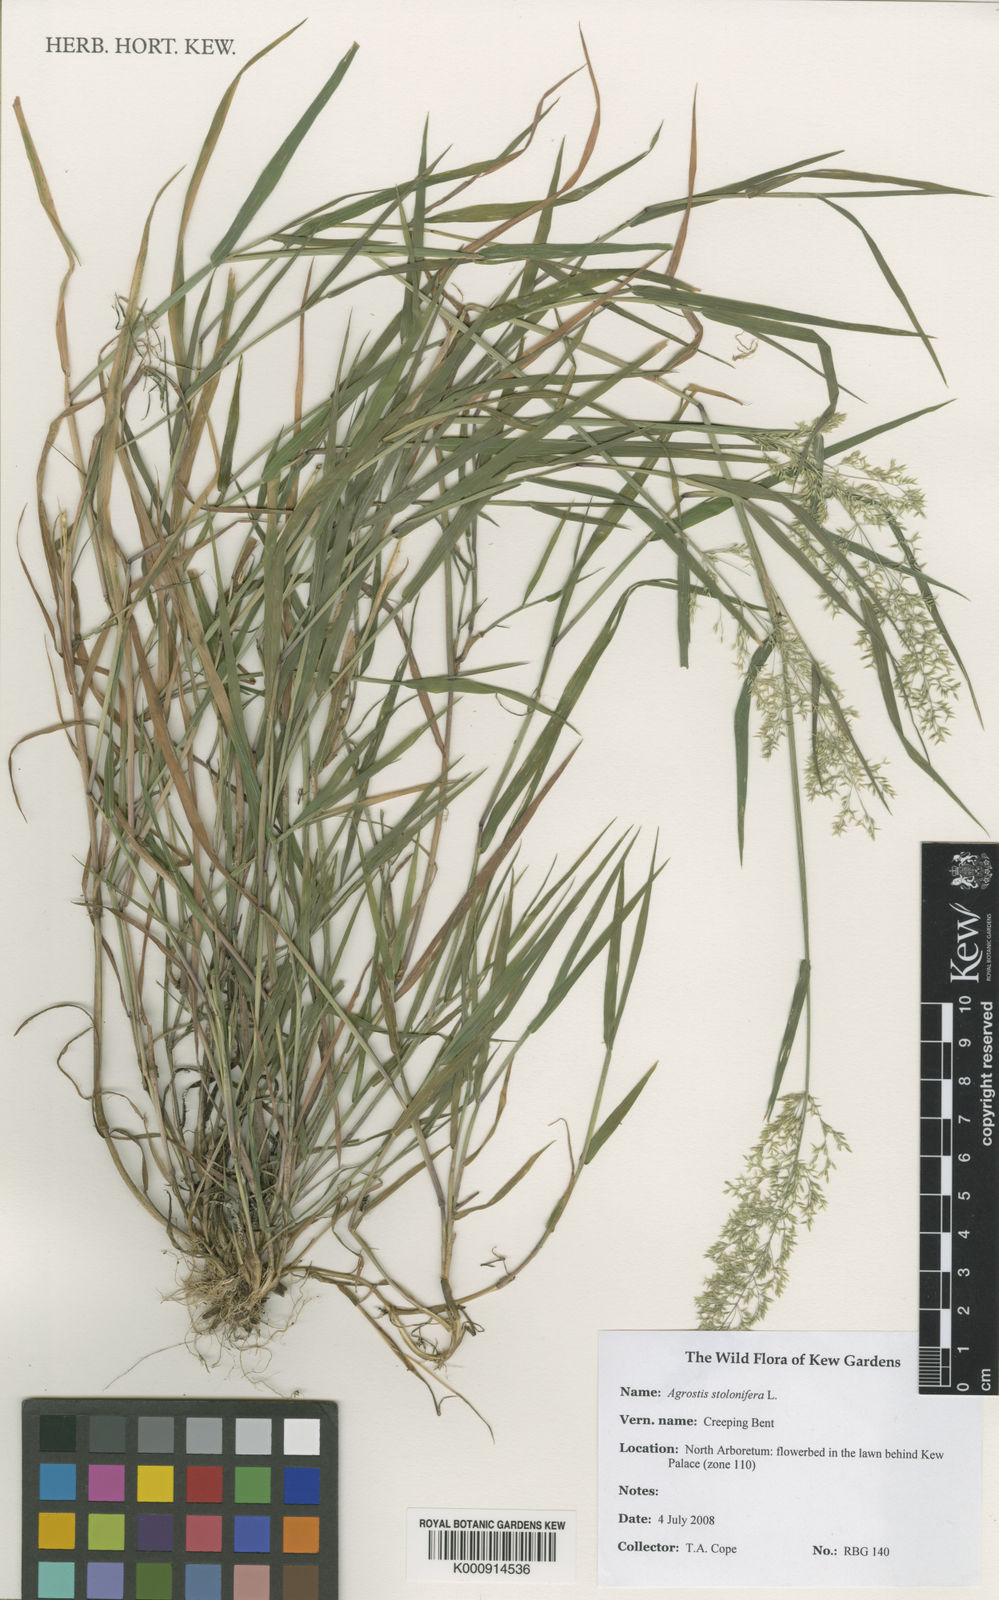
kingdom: Plantae
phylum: Tracheophyta
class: Liliopsida
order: Poales
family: Poaceae
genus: Agrostis
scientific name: Agrostis stolonifera
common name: Creeping bentgrass
